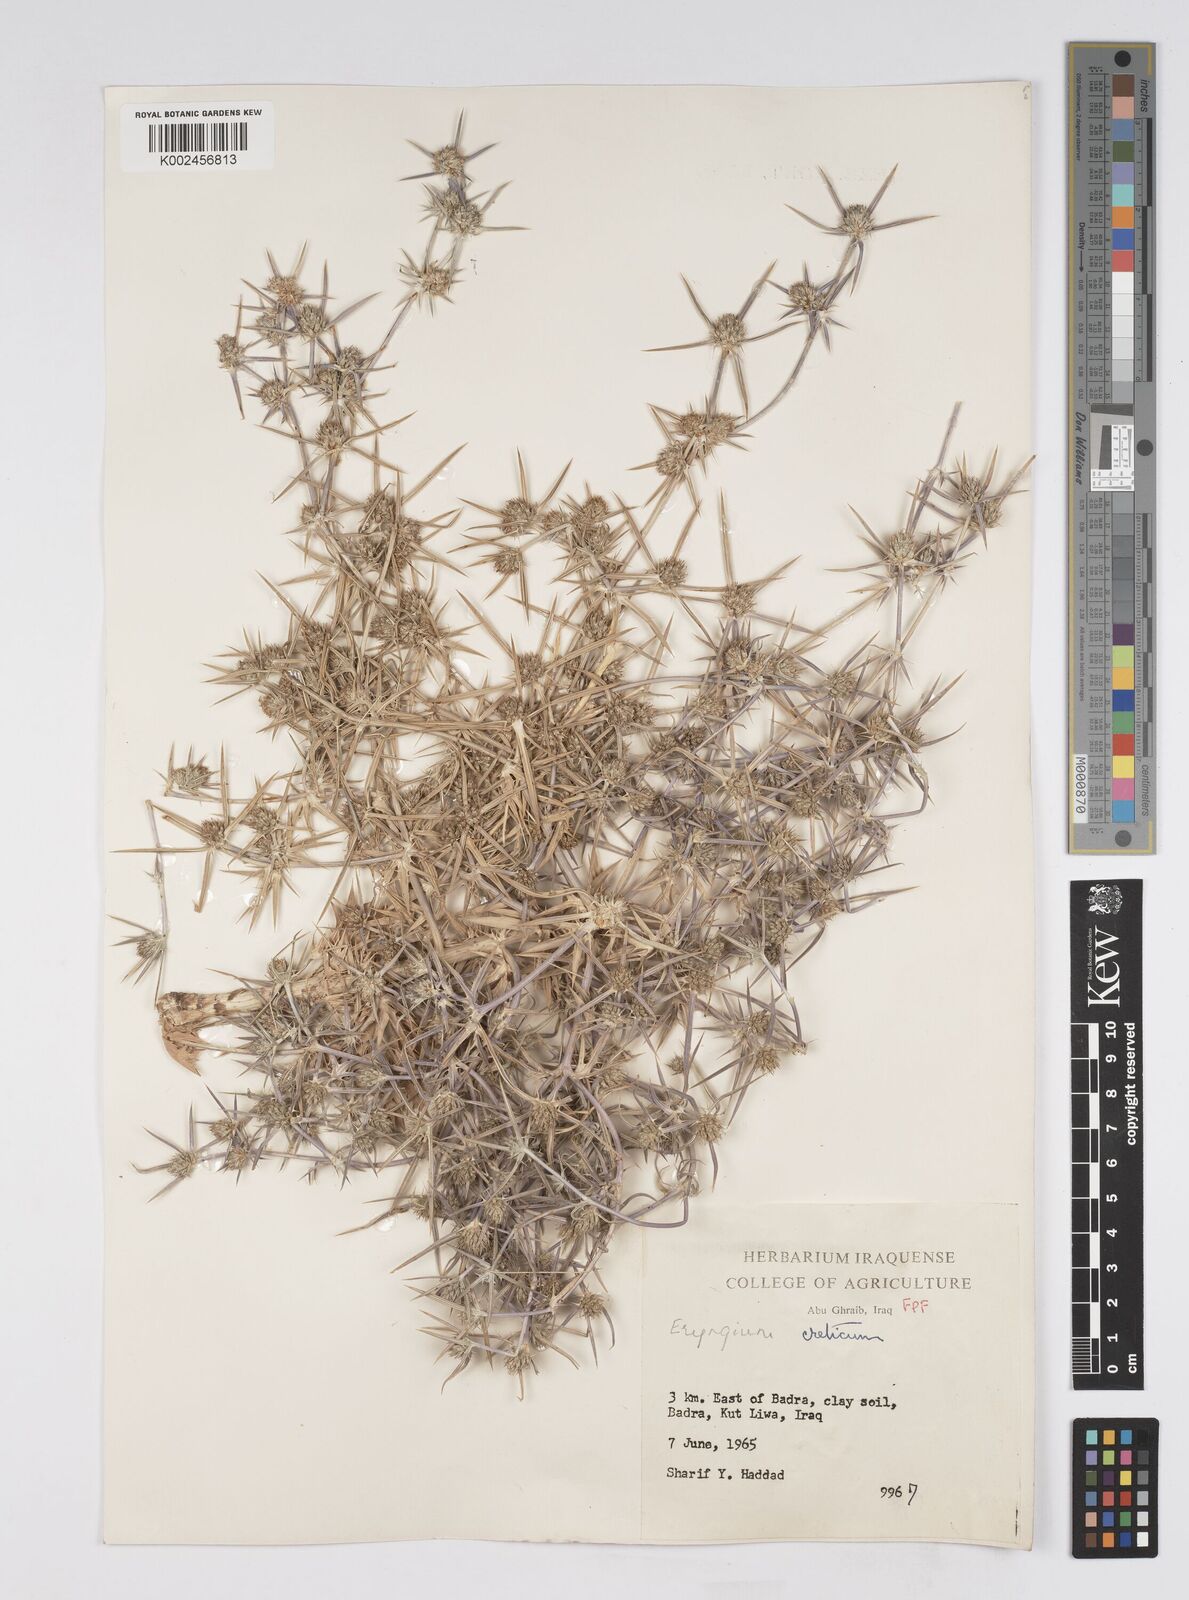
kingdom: Plantae
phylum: Tracheophyta
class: Magnoliopsida
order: Apiales
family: Apiaceae
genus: Eryngium
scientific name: Eryngium creticum
